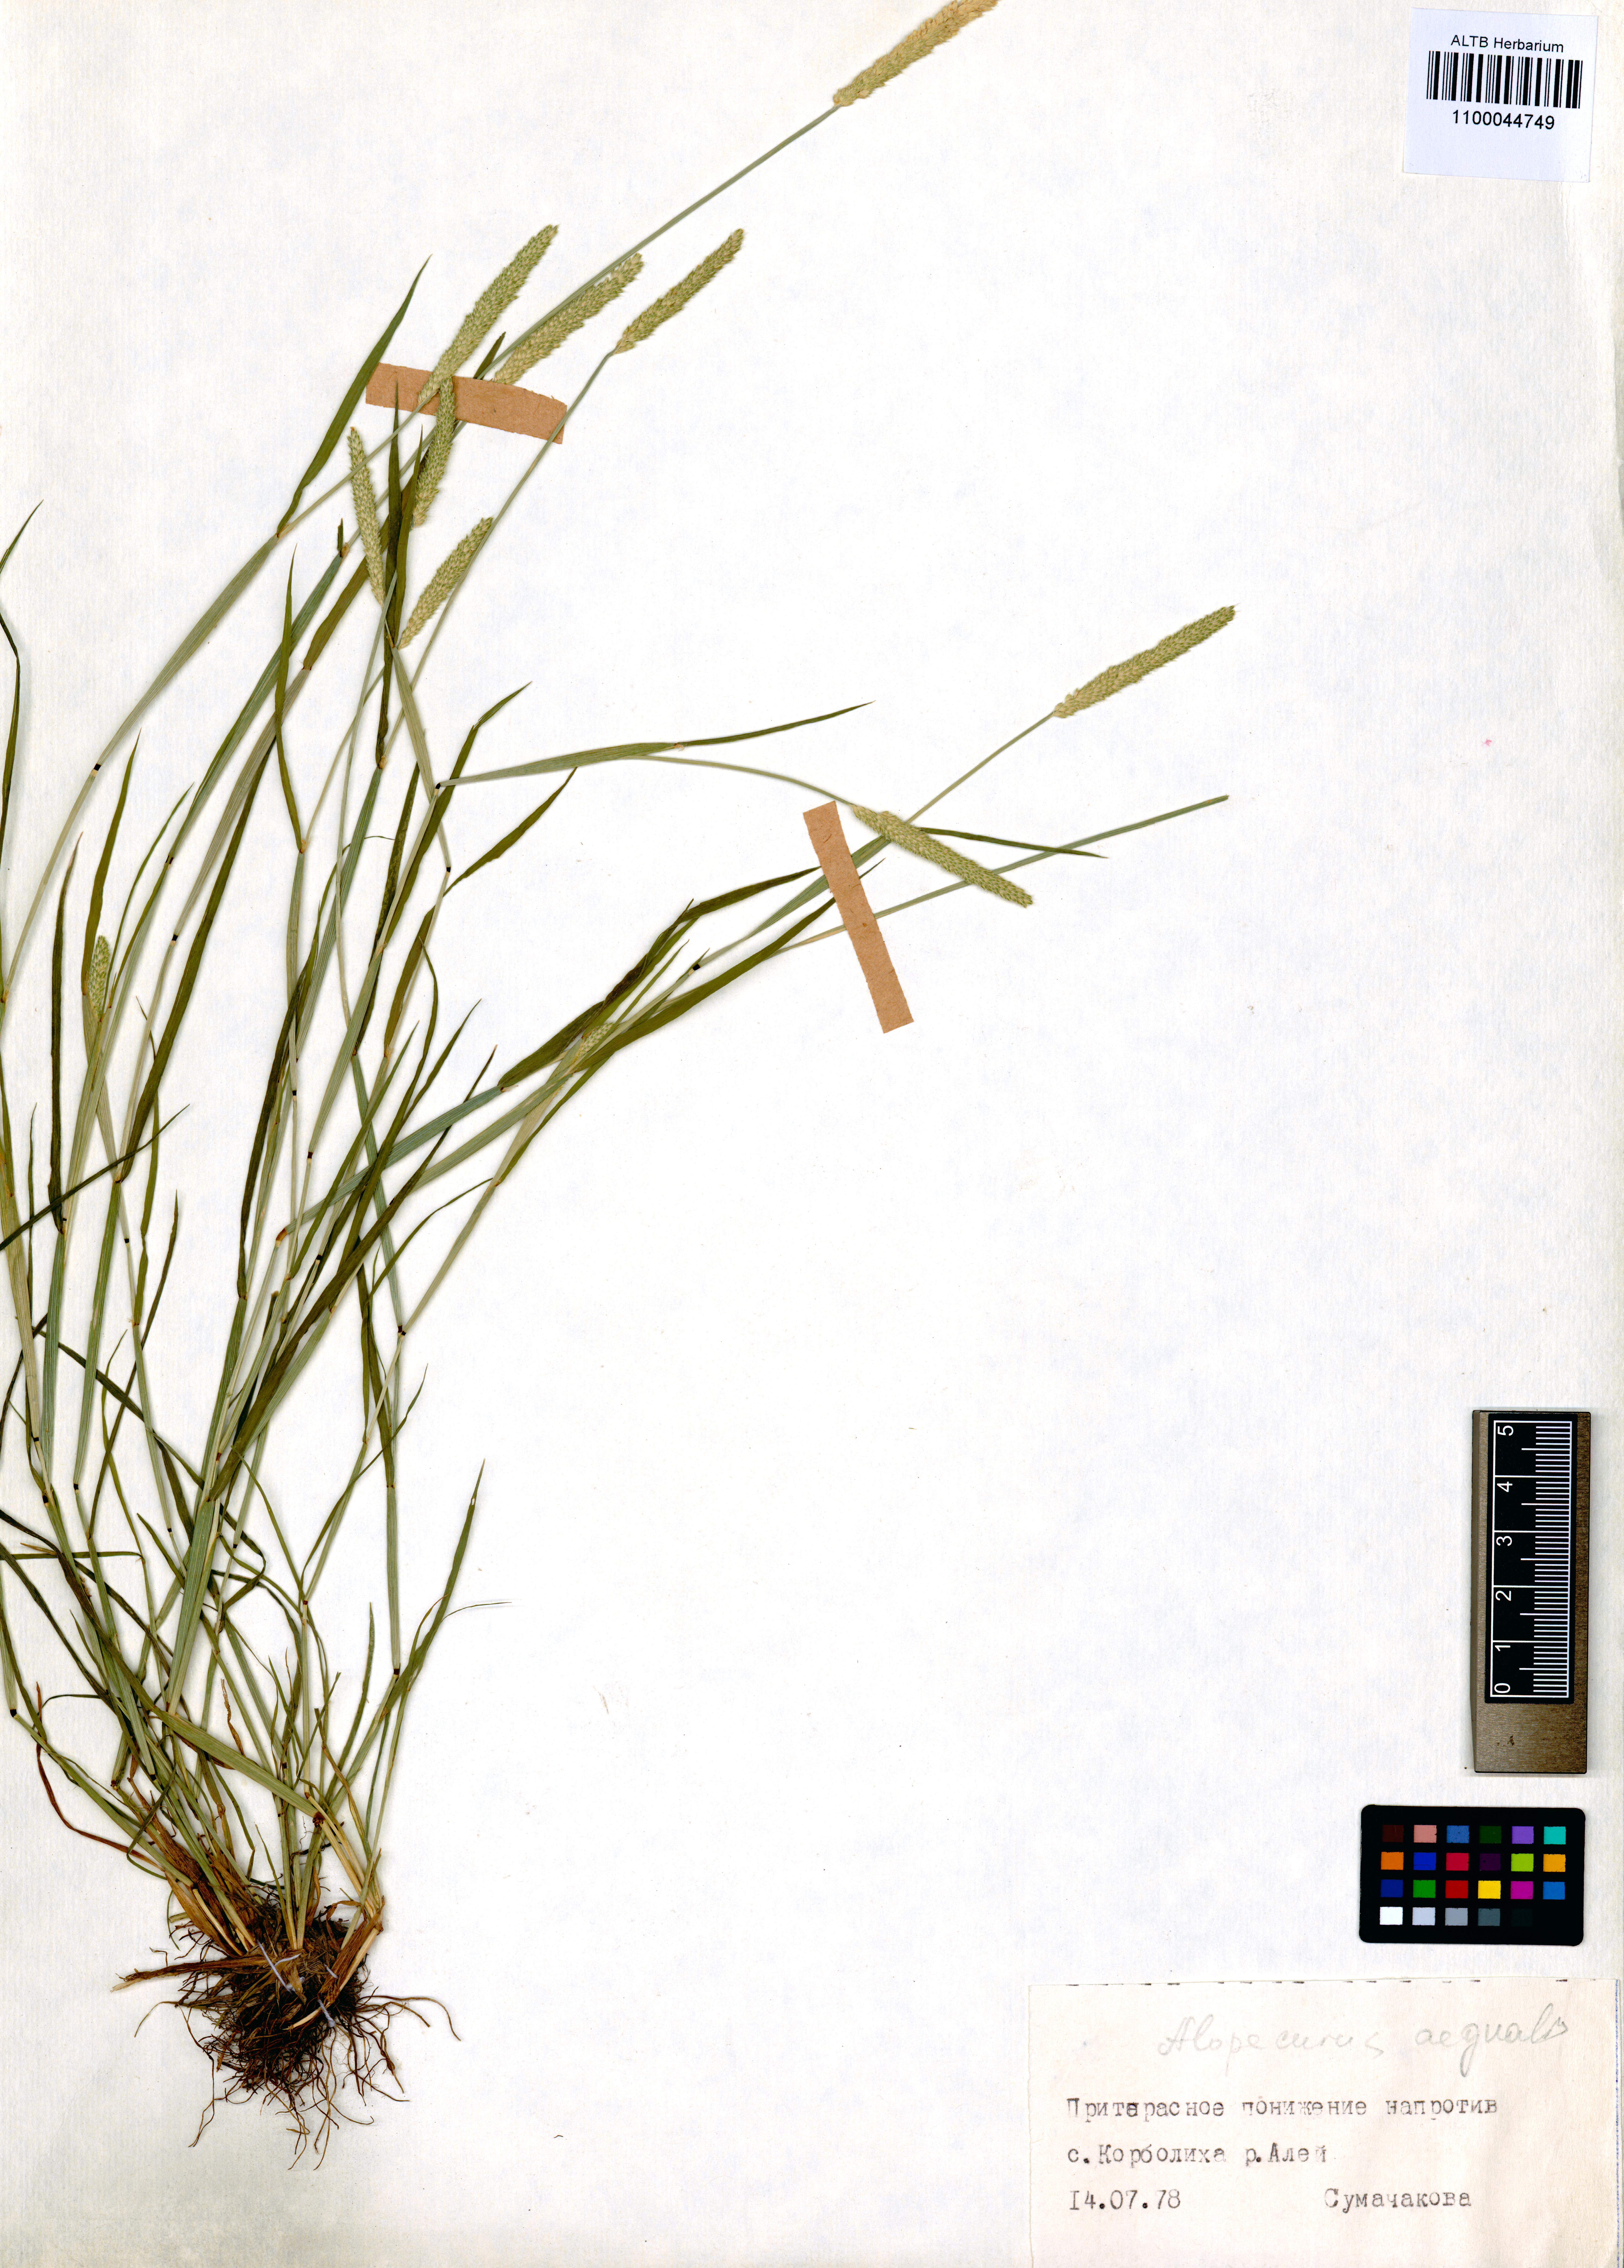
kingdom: Plantae
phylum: Tracheophyta
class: Liliopsida
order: Poales
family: Poaceae
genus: Alopecurus
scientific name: Alopecurus aequalis
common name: Orange foxtail
